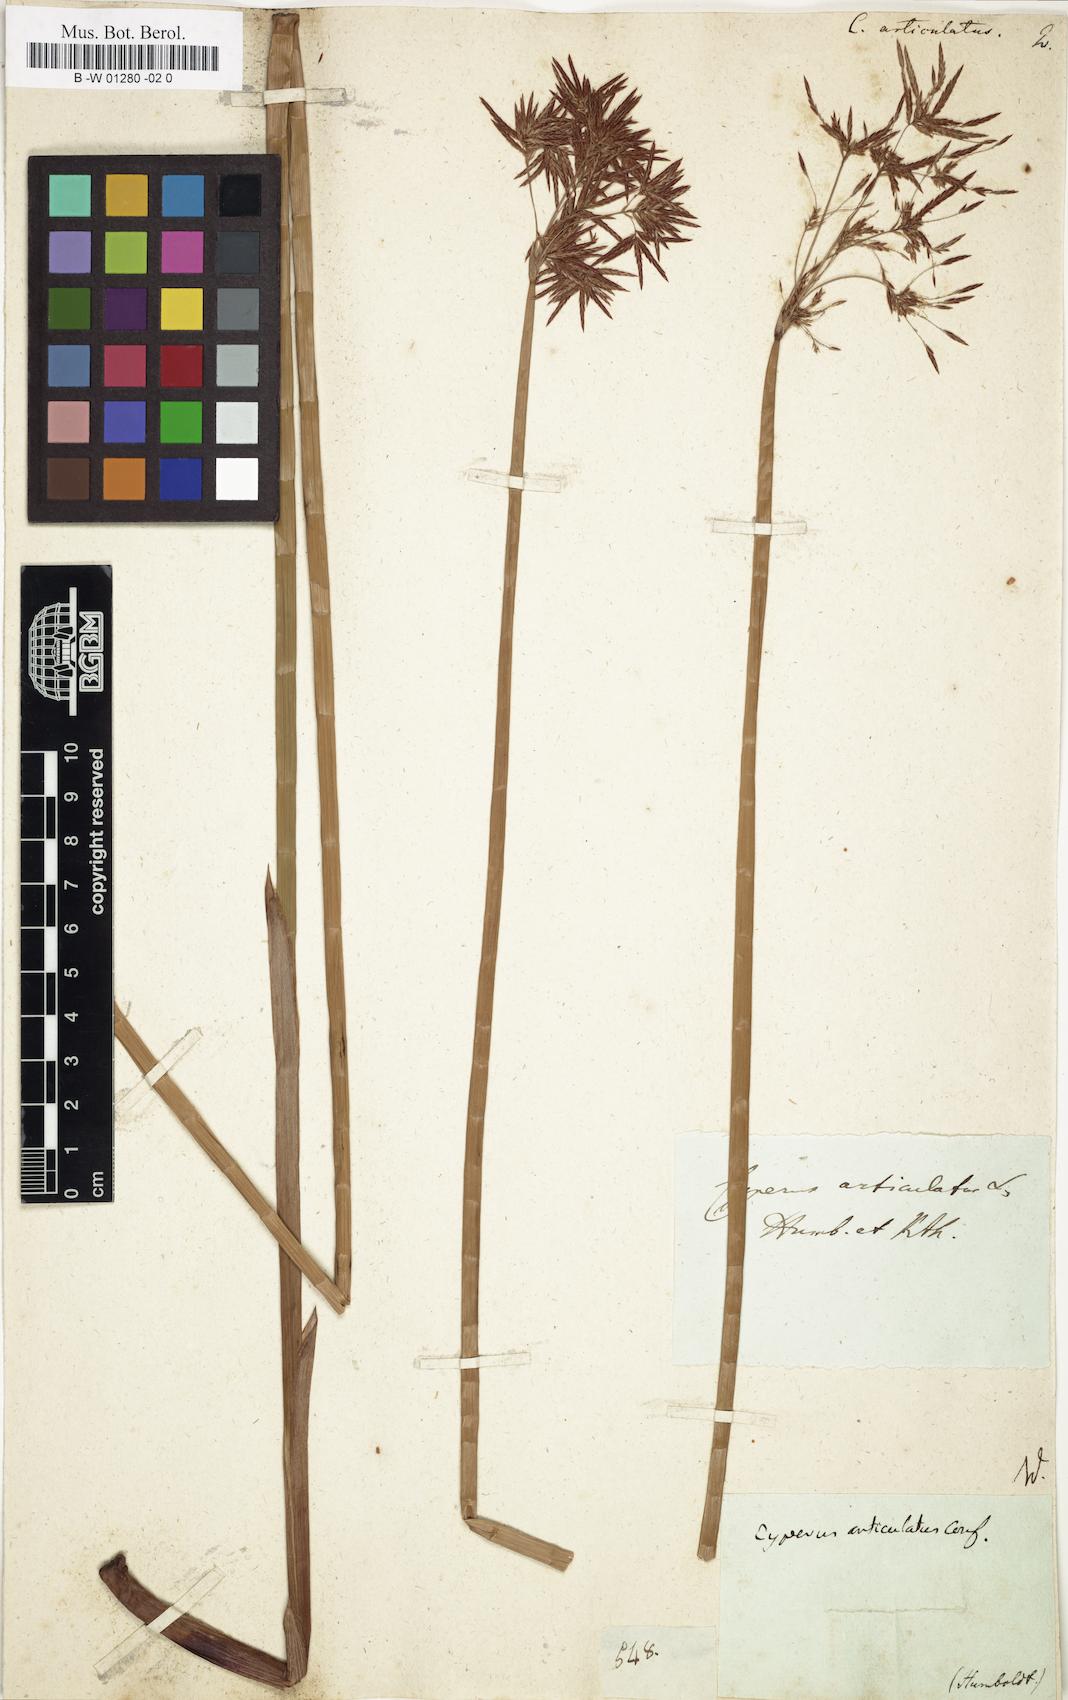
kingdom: Plantae
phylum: Tracheophyta
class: Liliopsida
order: Poales
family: Cyperaceae
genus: Cyperus
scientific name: Cyperus articulatus
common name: Jointed flatsedge
